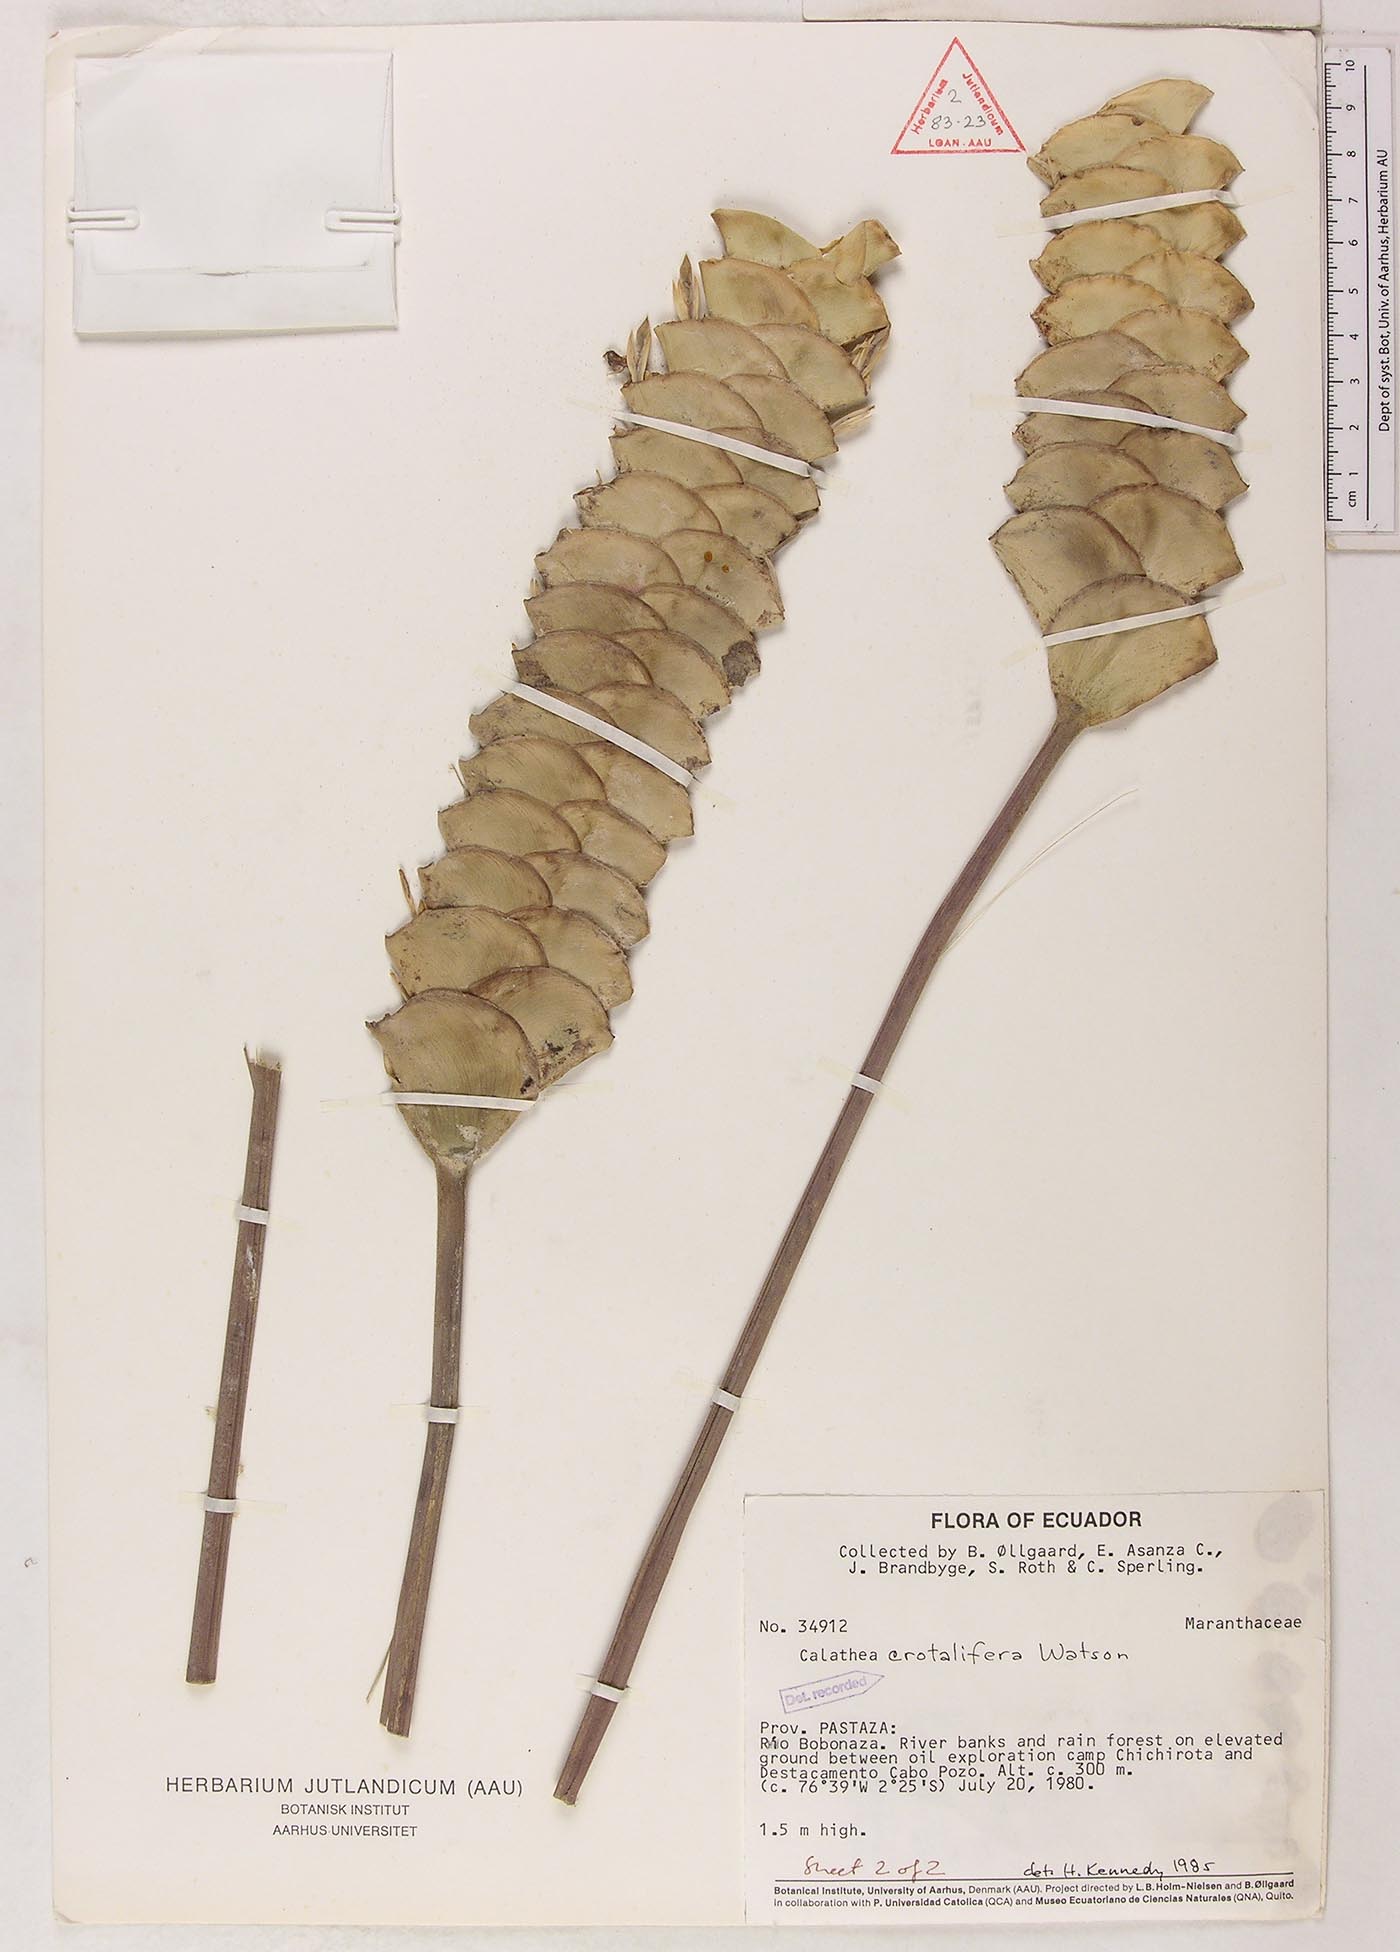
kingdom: Plantae
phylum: Tracheophyta
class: Liliopsida
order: Zingiberales
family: Marantaceae
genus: Calathea
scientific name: Calathea crotalifera
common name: Rattlesnake plant
